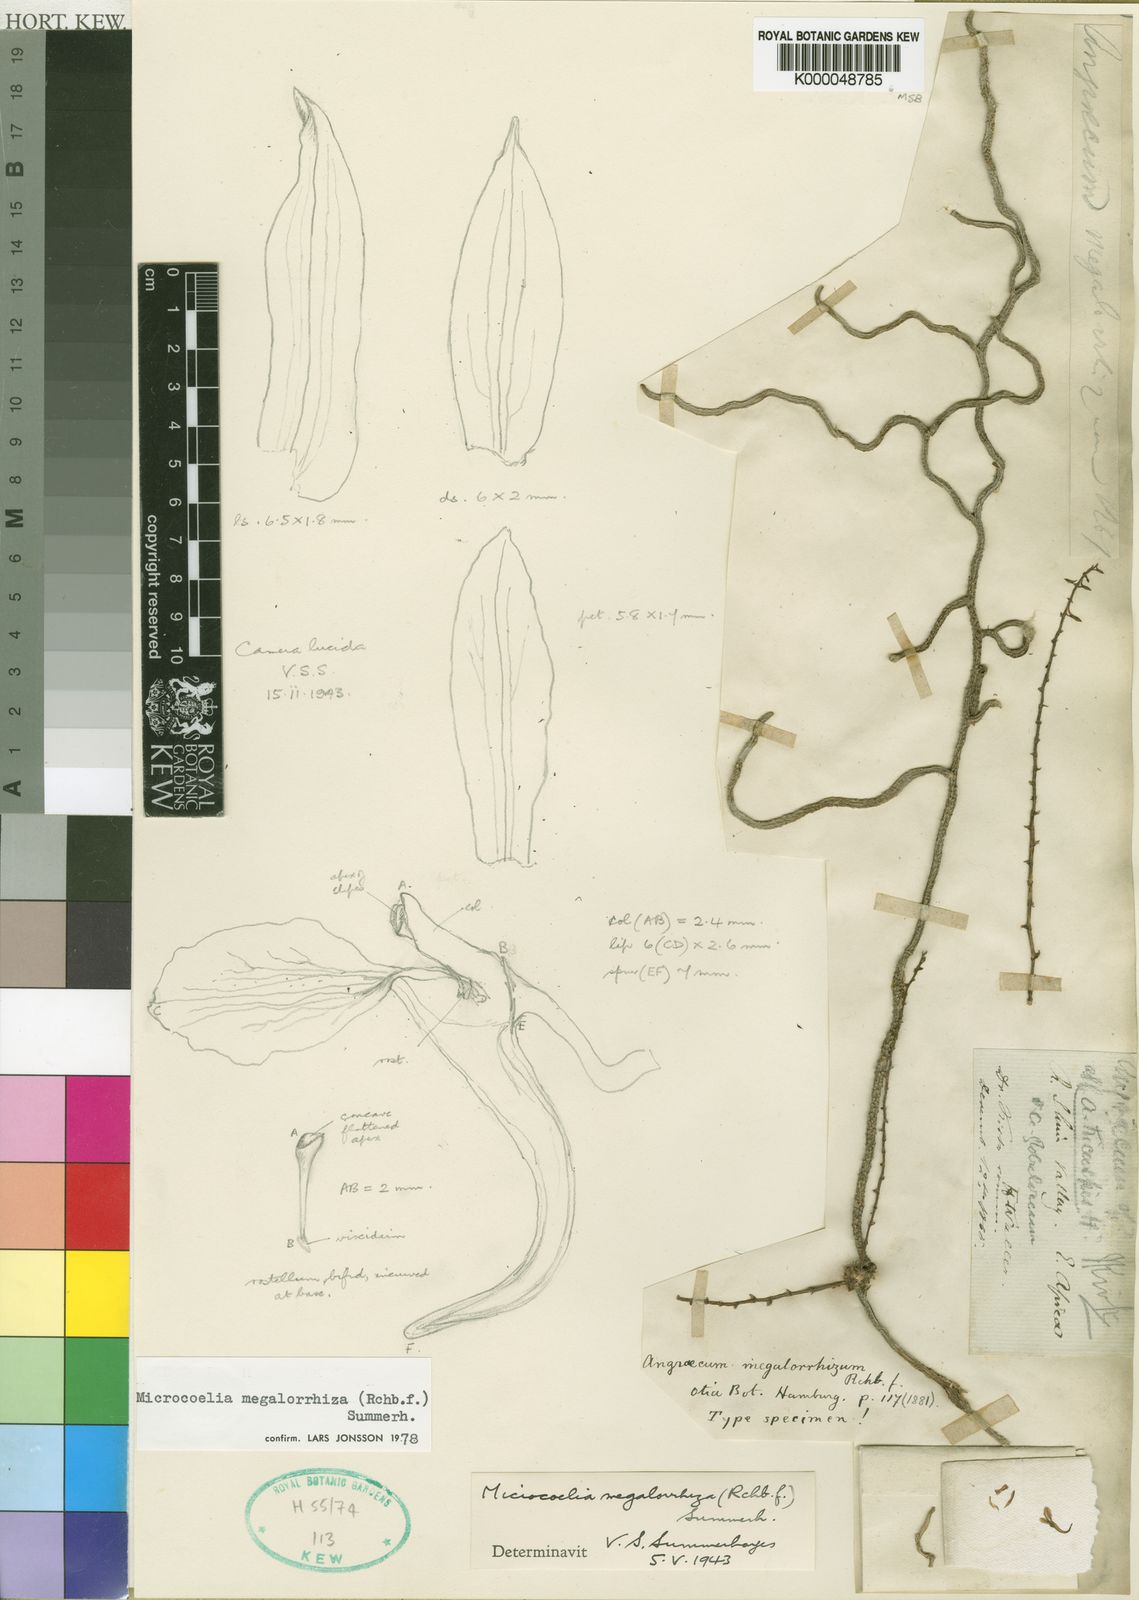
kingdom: Plantae
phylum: Tracheophyta
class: Liliopsida
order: Asparagales
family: Orchidaceae
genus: Microcoelia
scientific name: Microcoelia megalorrhiza
